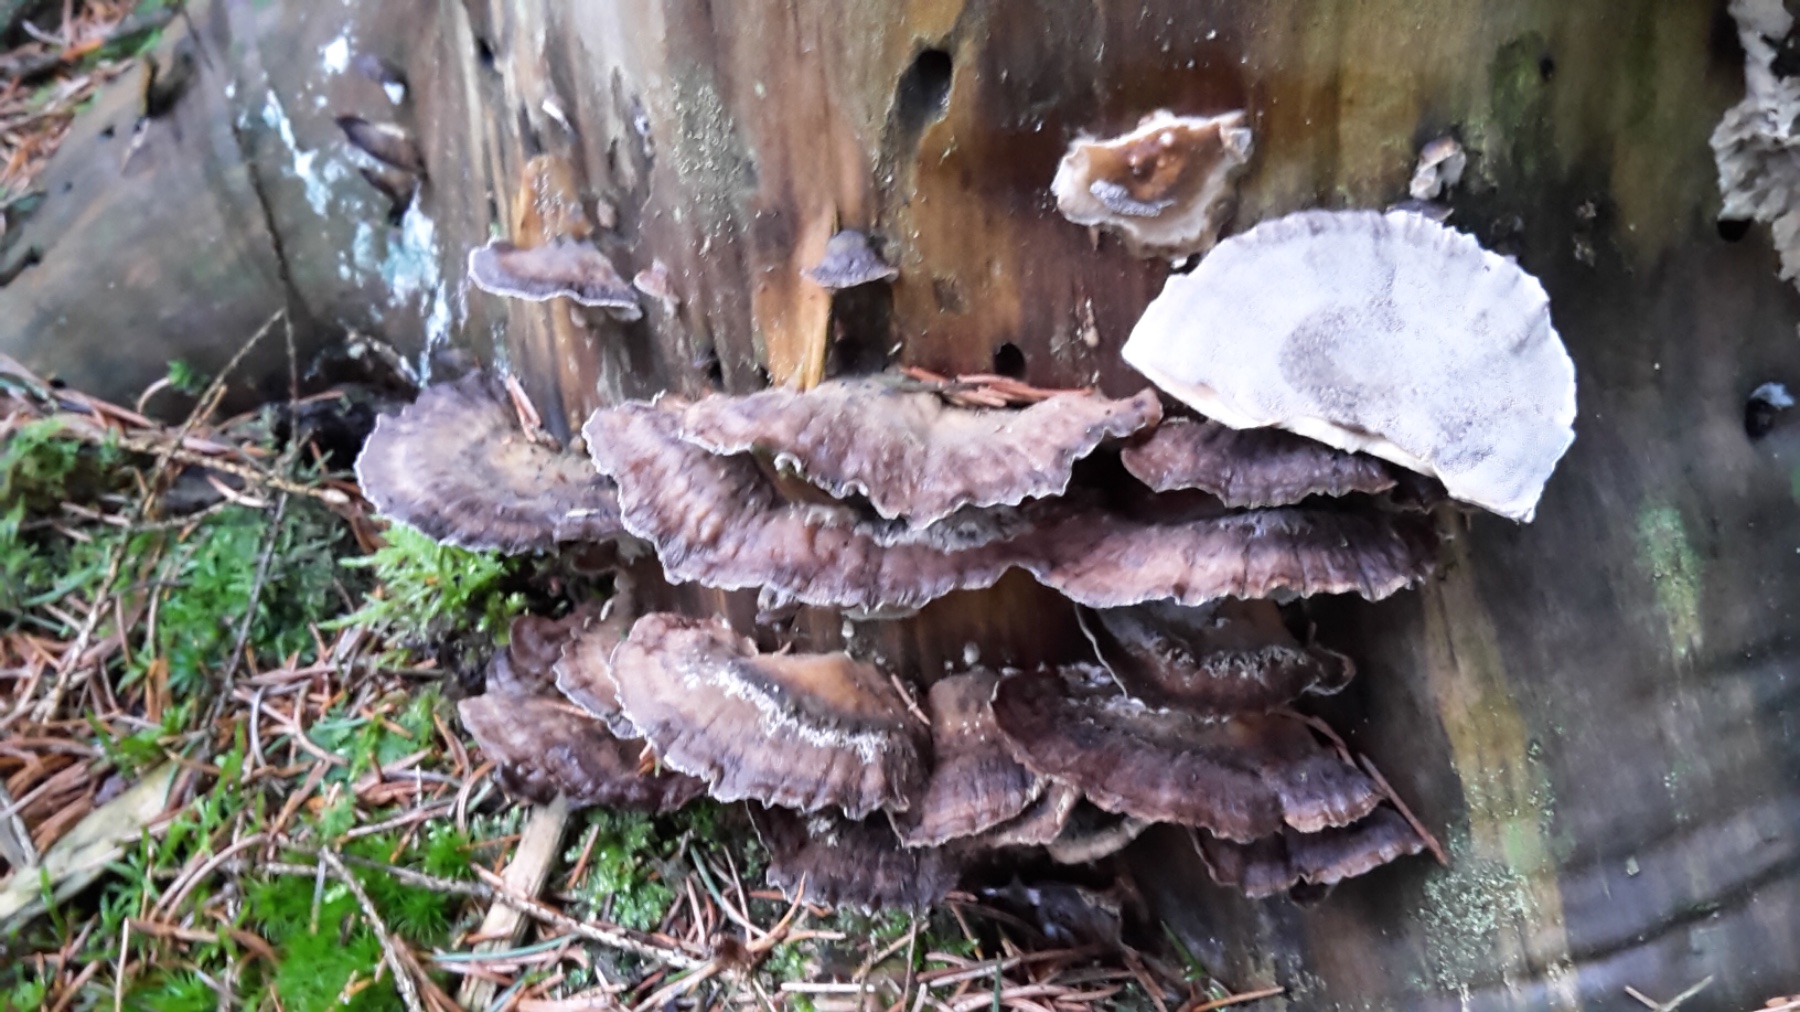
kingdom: Fungi
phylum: Basidiomycota
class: Agaricomycetes
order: Polyporales
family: Phanerochaetaceae
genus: Bjerkandera
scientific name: Bjerkandera adusta
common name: sveden sodporesvamp
